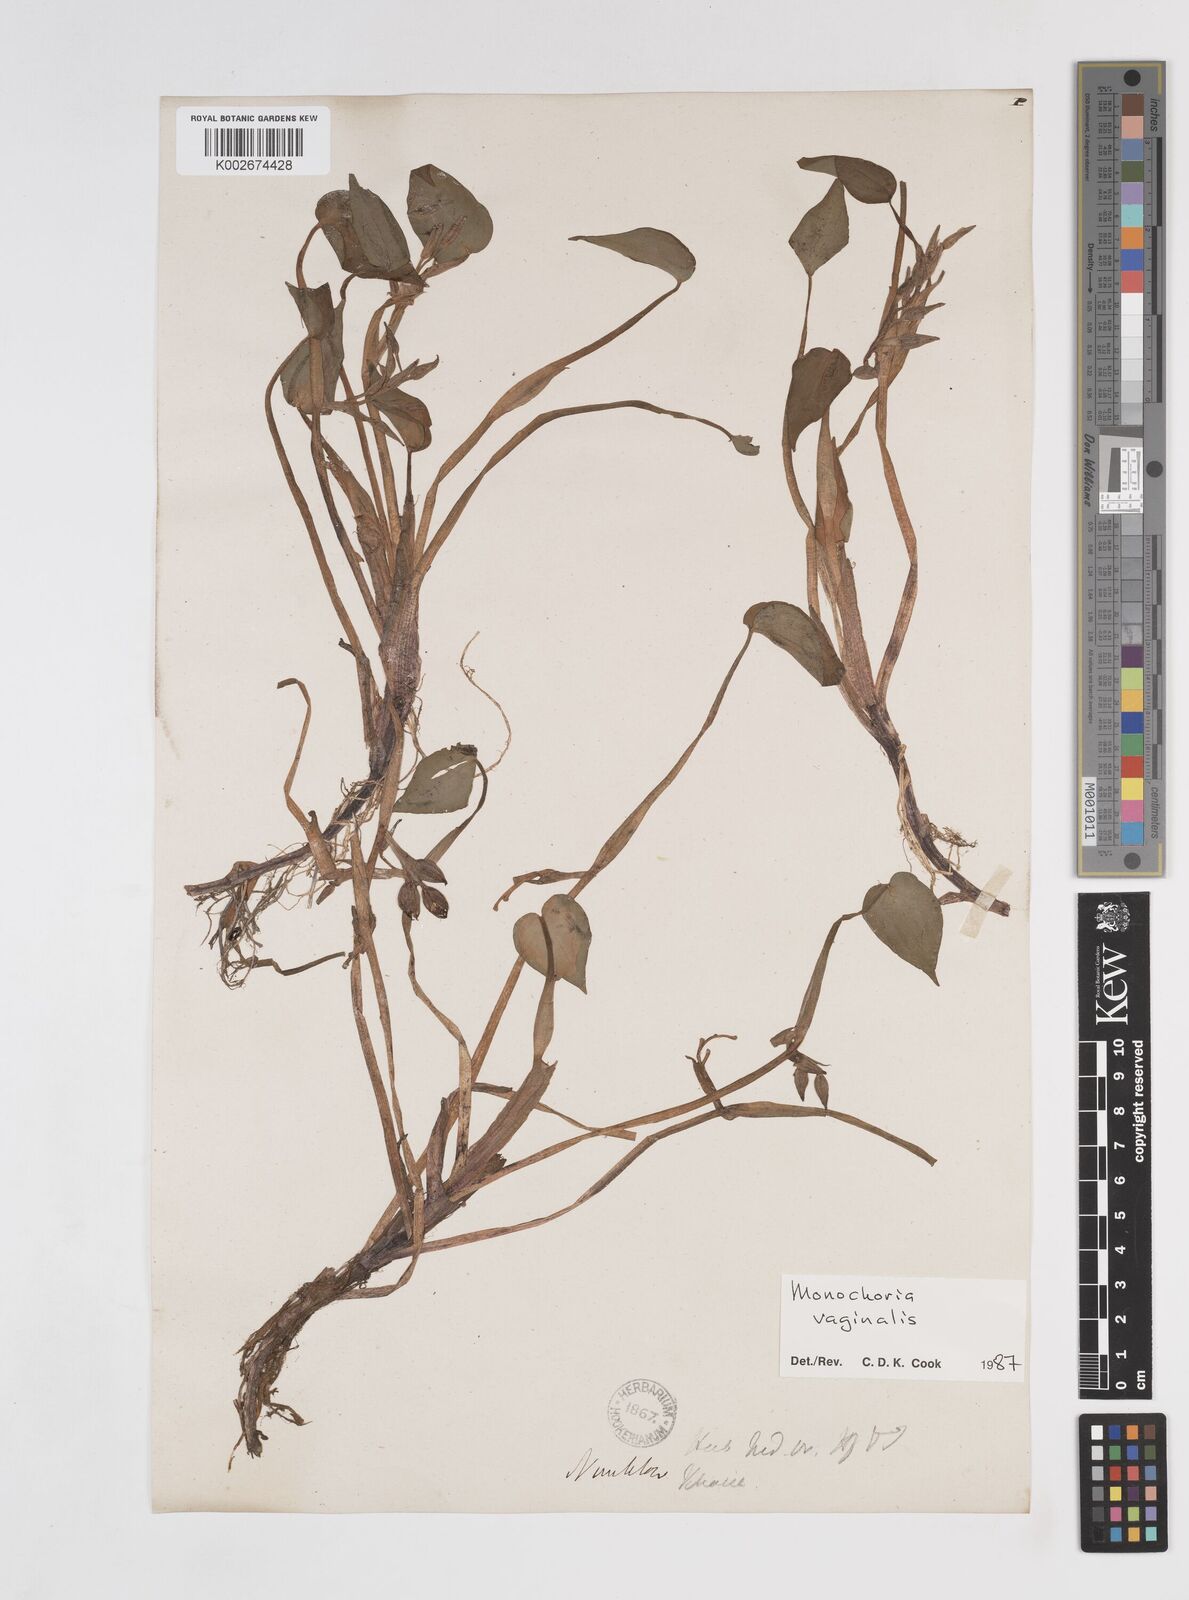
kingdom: Plantae
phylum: Tracheophyta
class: Liliopsida
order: Commelinales
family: Pontederiaceae
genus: Pontederia
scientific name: Pontederia vaginalis
